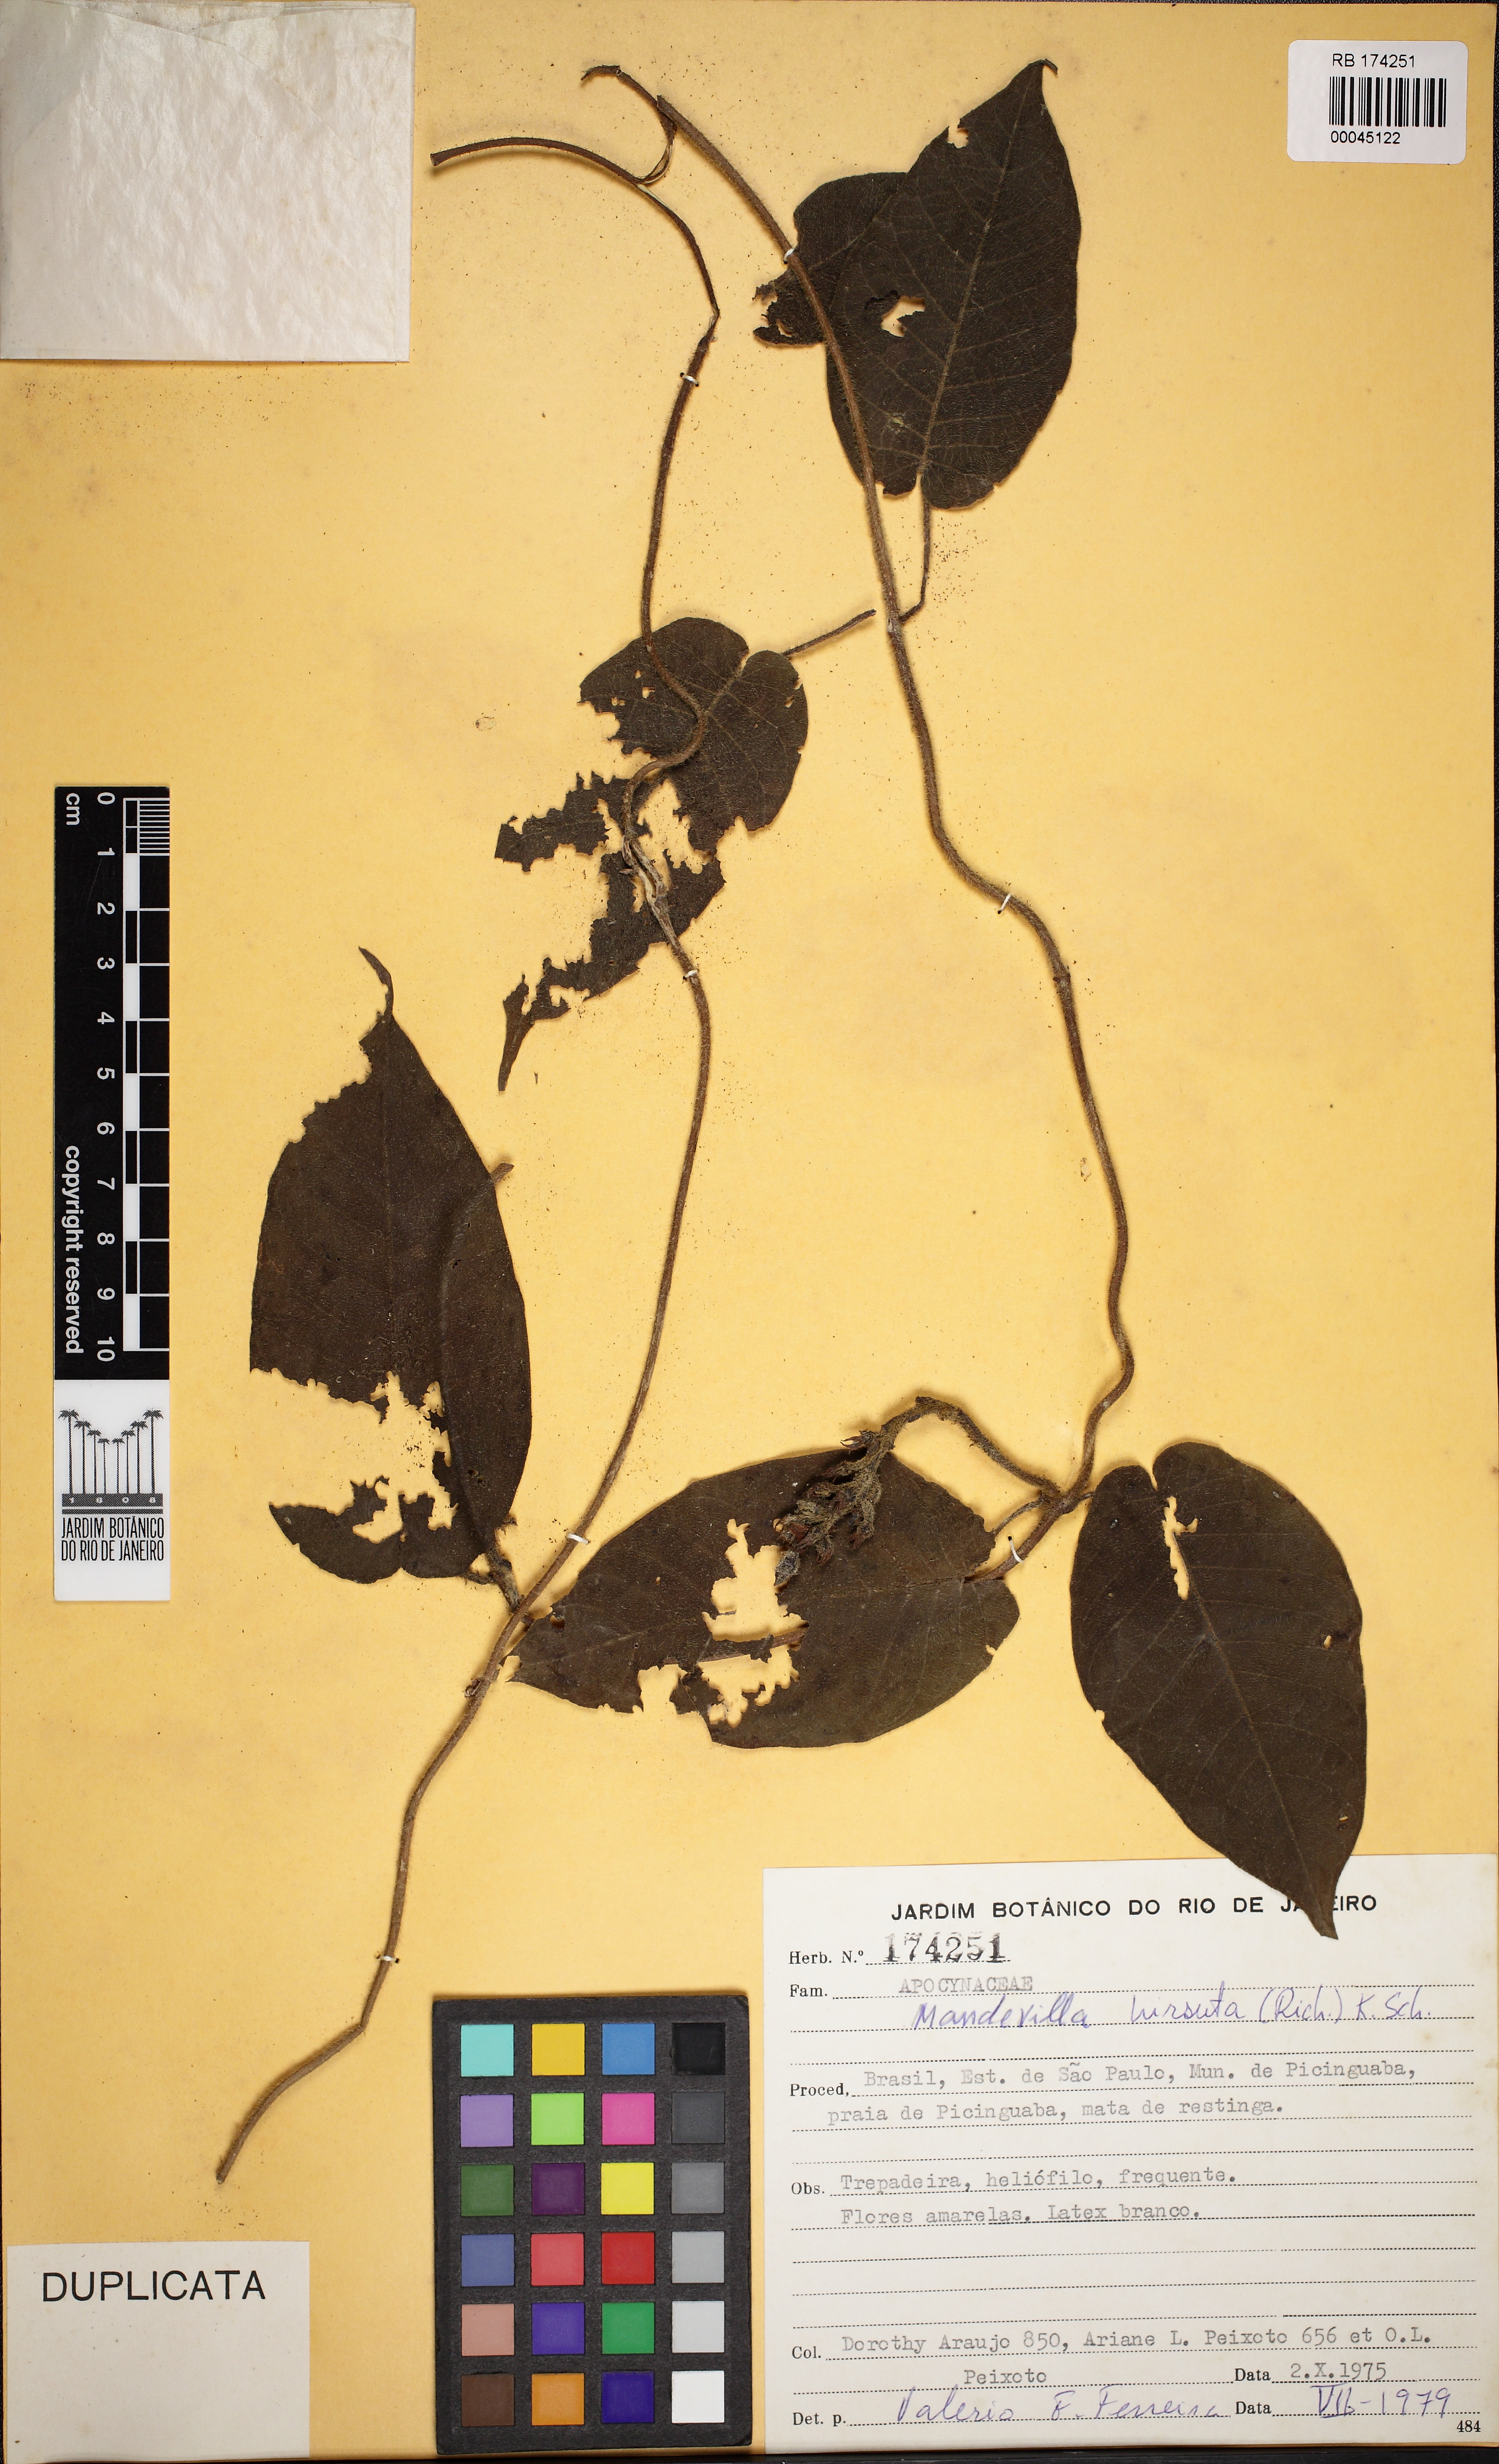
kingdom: Plantae
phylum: Tracheophyta
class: Magnoliopsida
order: Gentianales
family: Apocynaceae
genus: Mandevilla
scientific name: Mandevilla hirsuta
